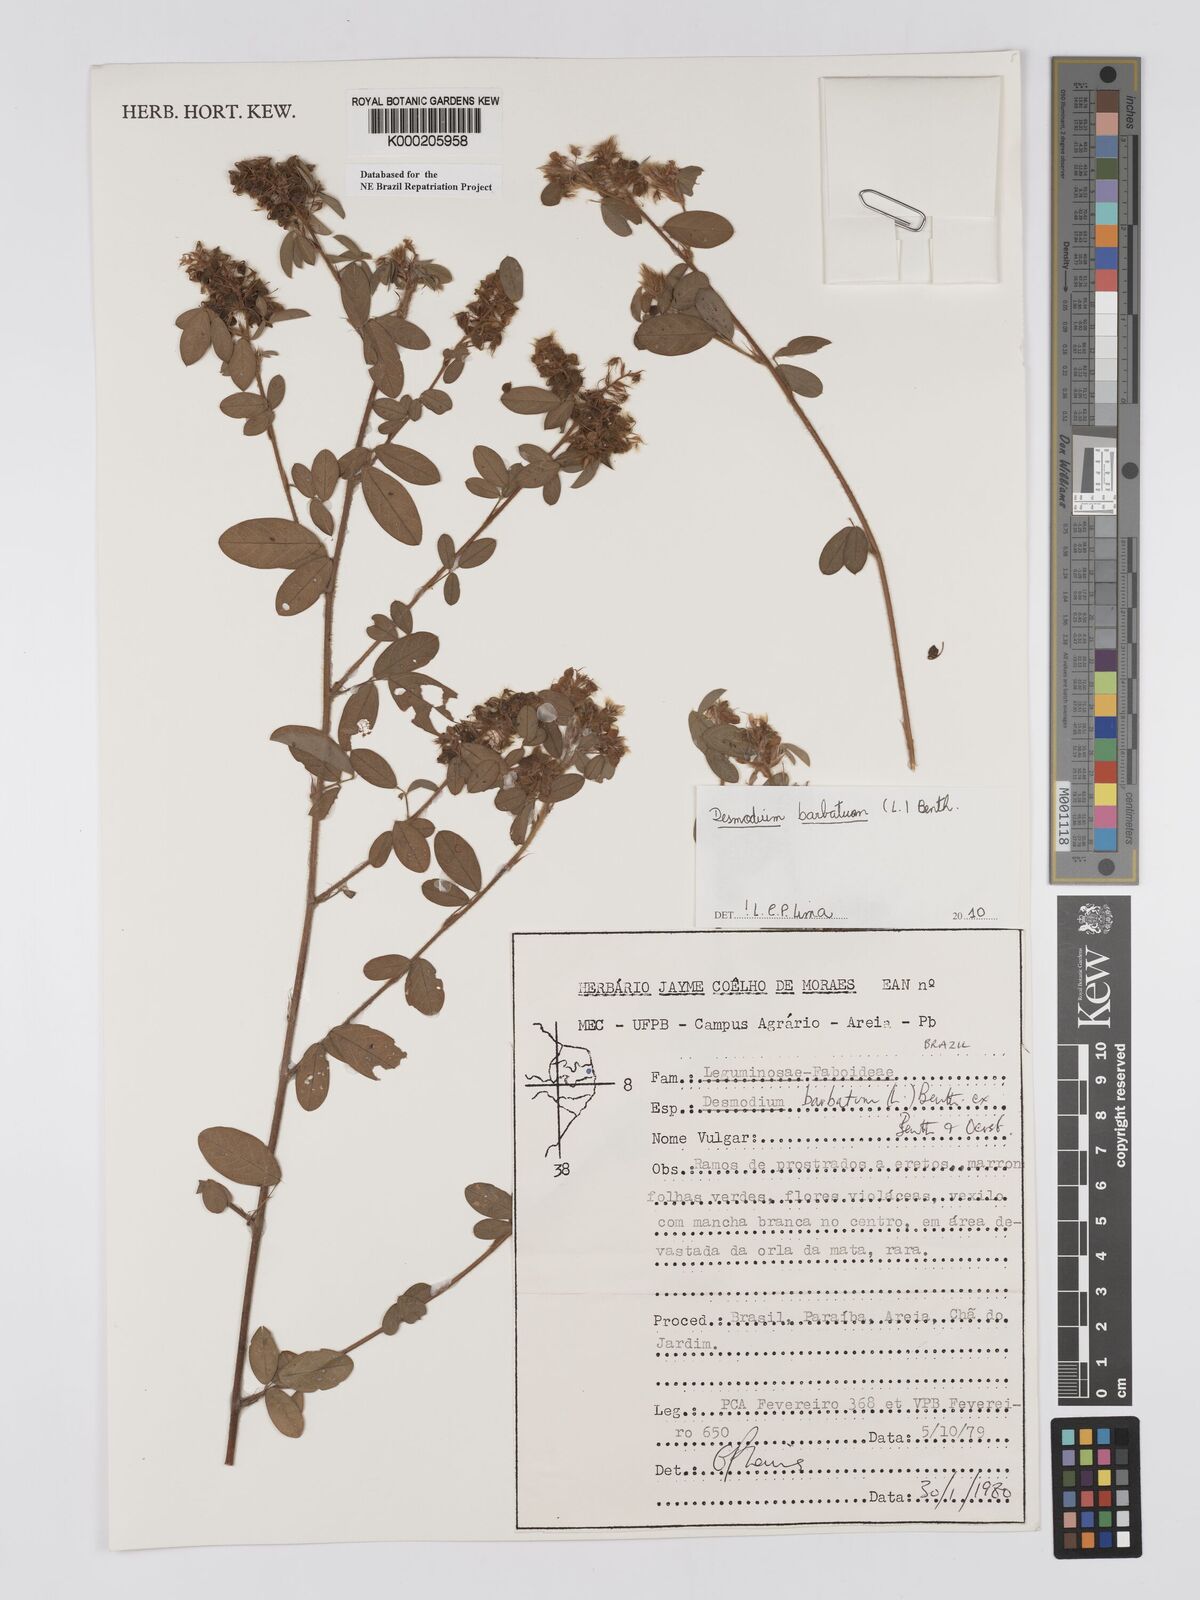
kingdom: Plantae
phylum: Tracheophyta
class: Magnoliopsida
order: Fabales
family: Fabaceae
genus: Grona
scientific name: Grona barbata
